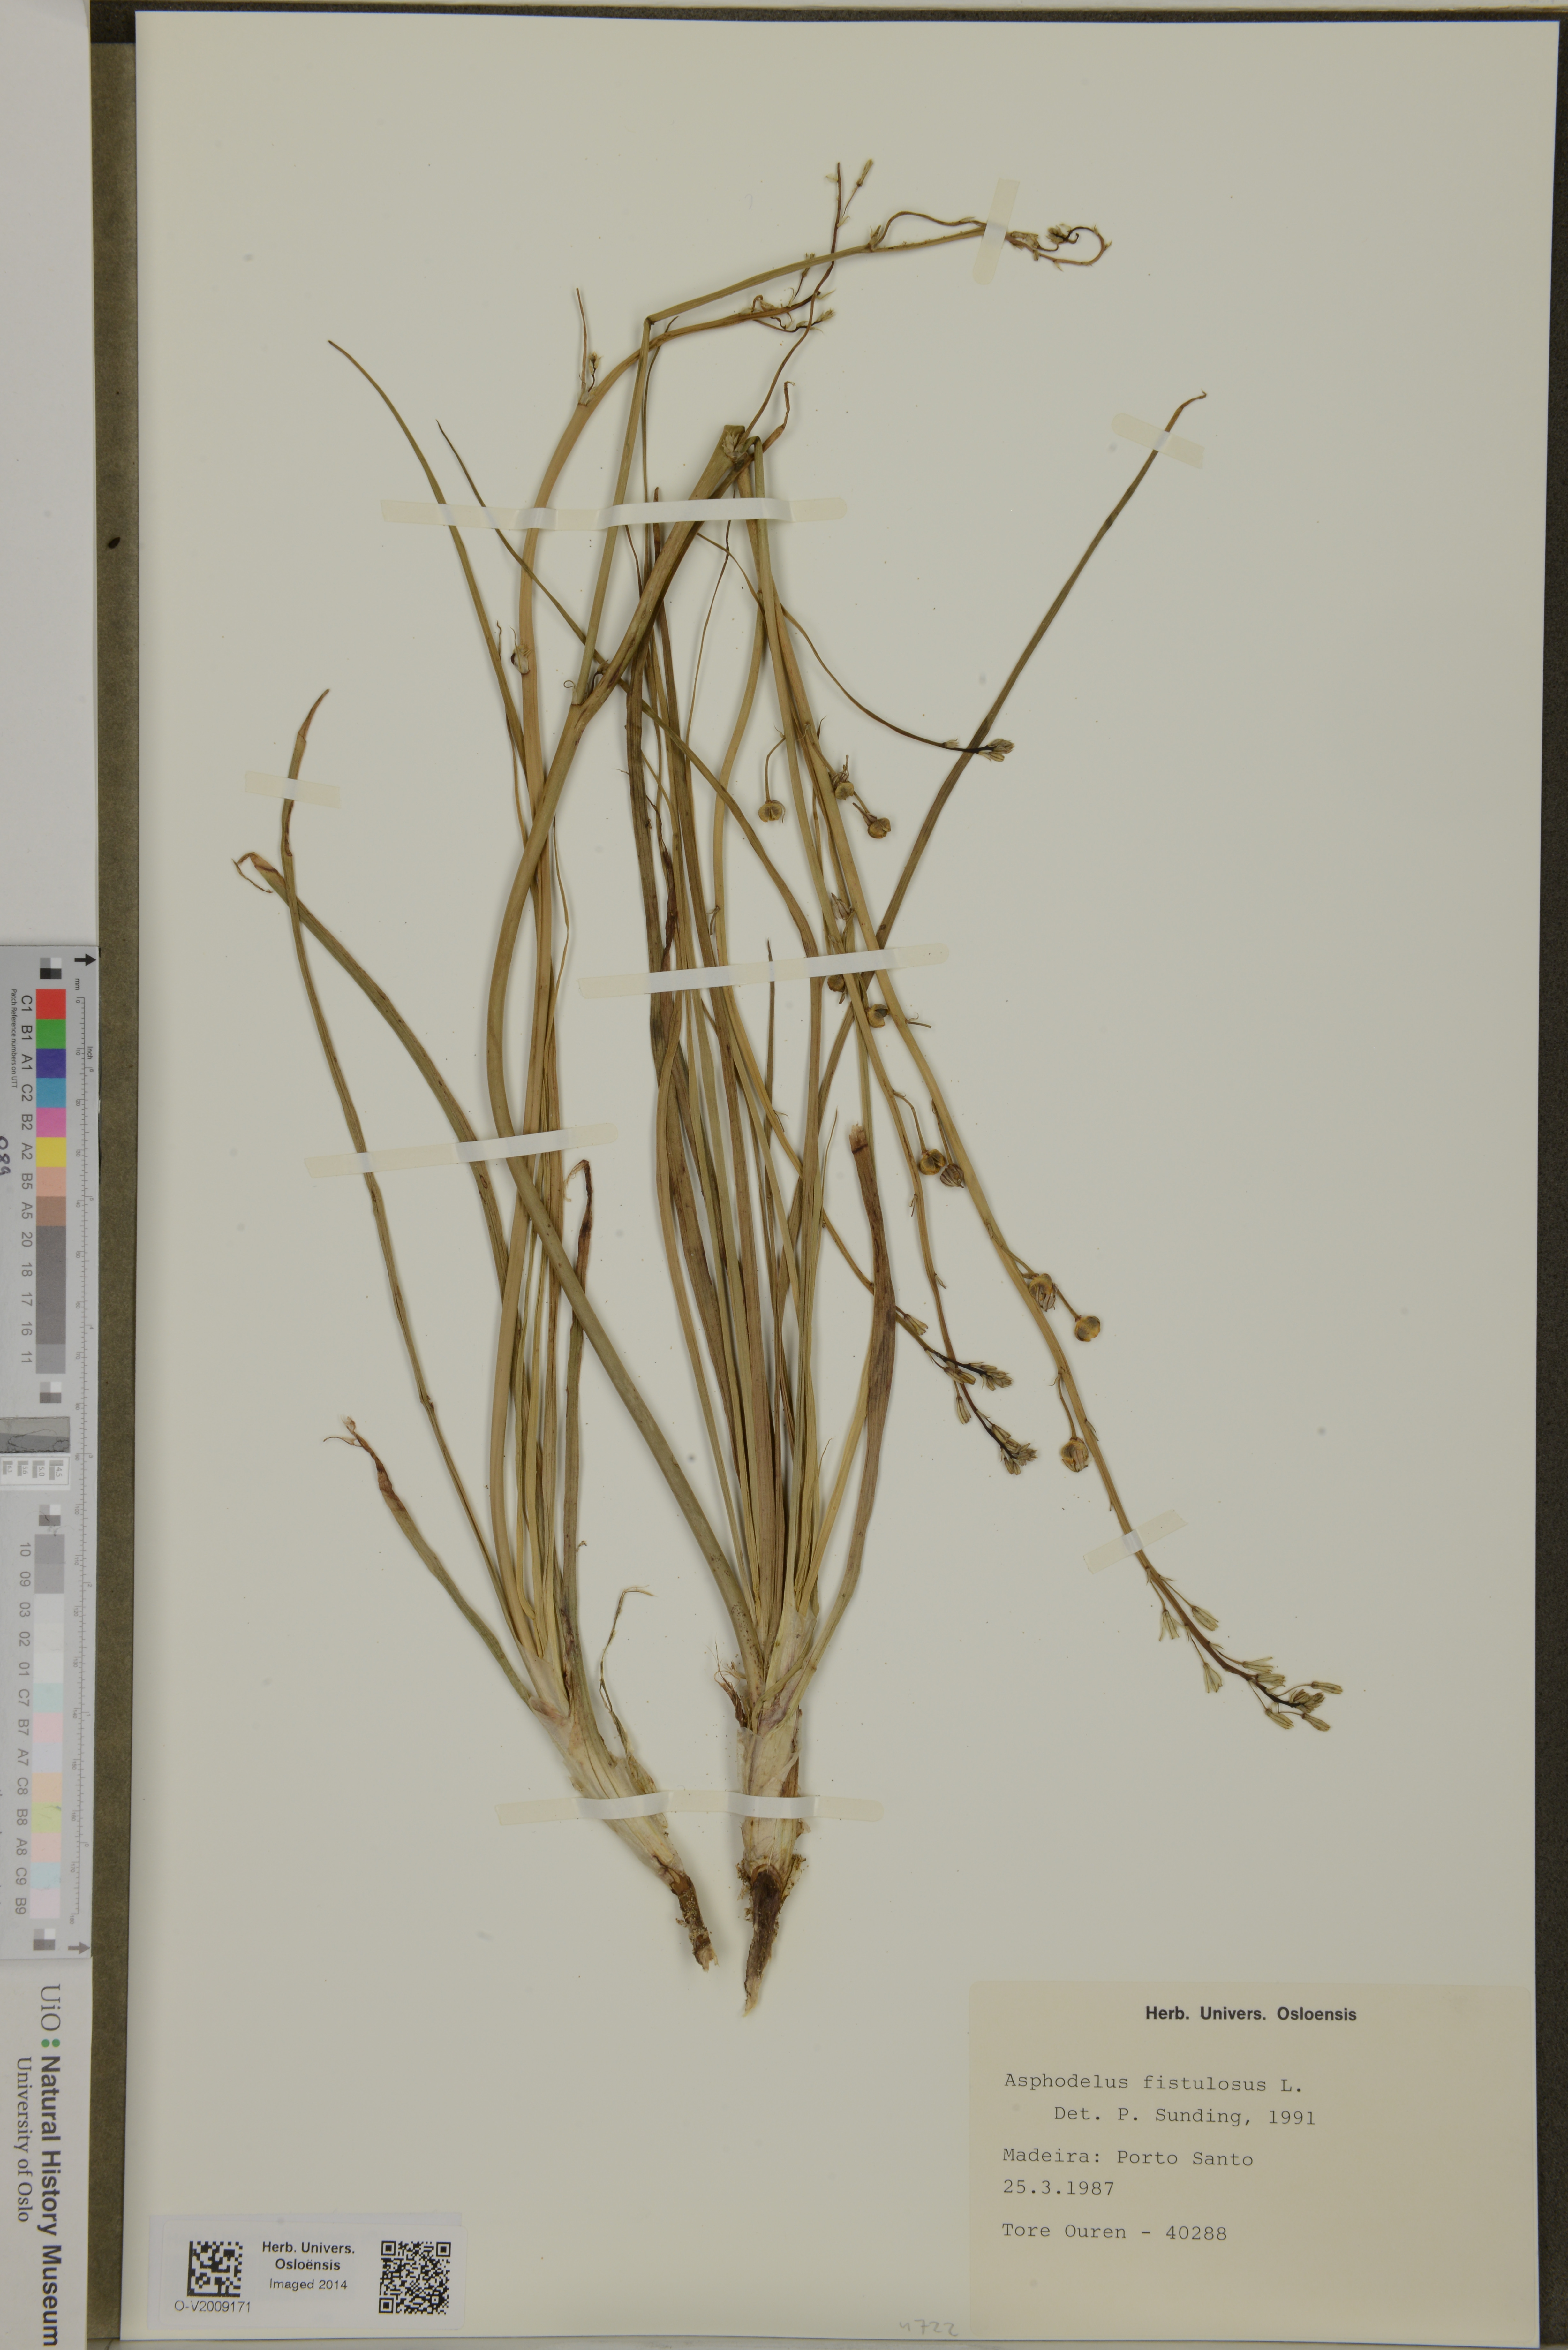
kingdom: Plantae
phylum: Tracheophyta
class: Liliopsida
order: Asparagales
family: Asphodelaceae
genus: Asphodelus
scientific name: Asphodelus fistulosus
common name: Onionweed
